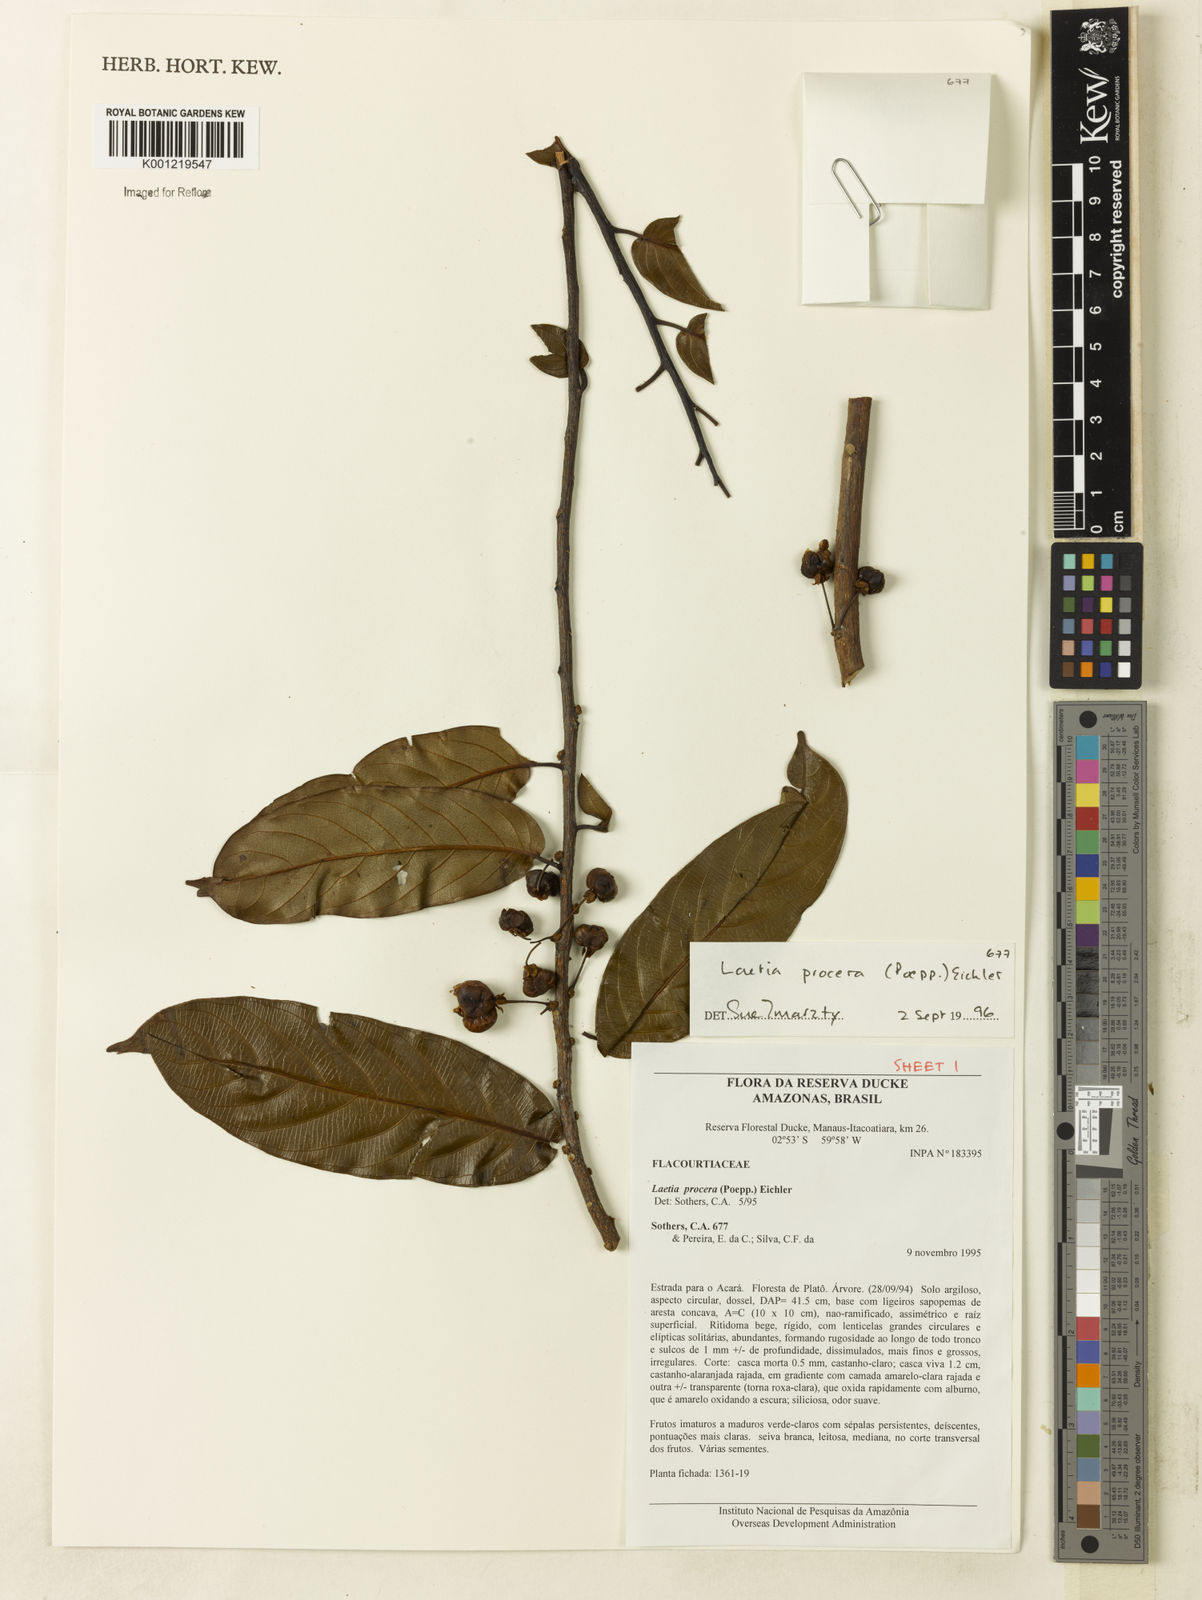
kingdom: Plantae
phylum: Tracheophyta
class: Magnoliopsida
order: Malpighiales
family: Salicaceae
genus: Casearia
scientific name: Casearia bicolor
